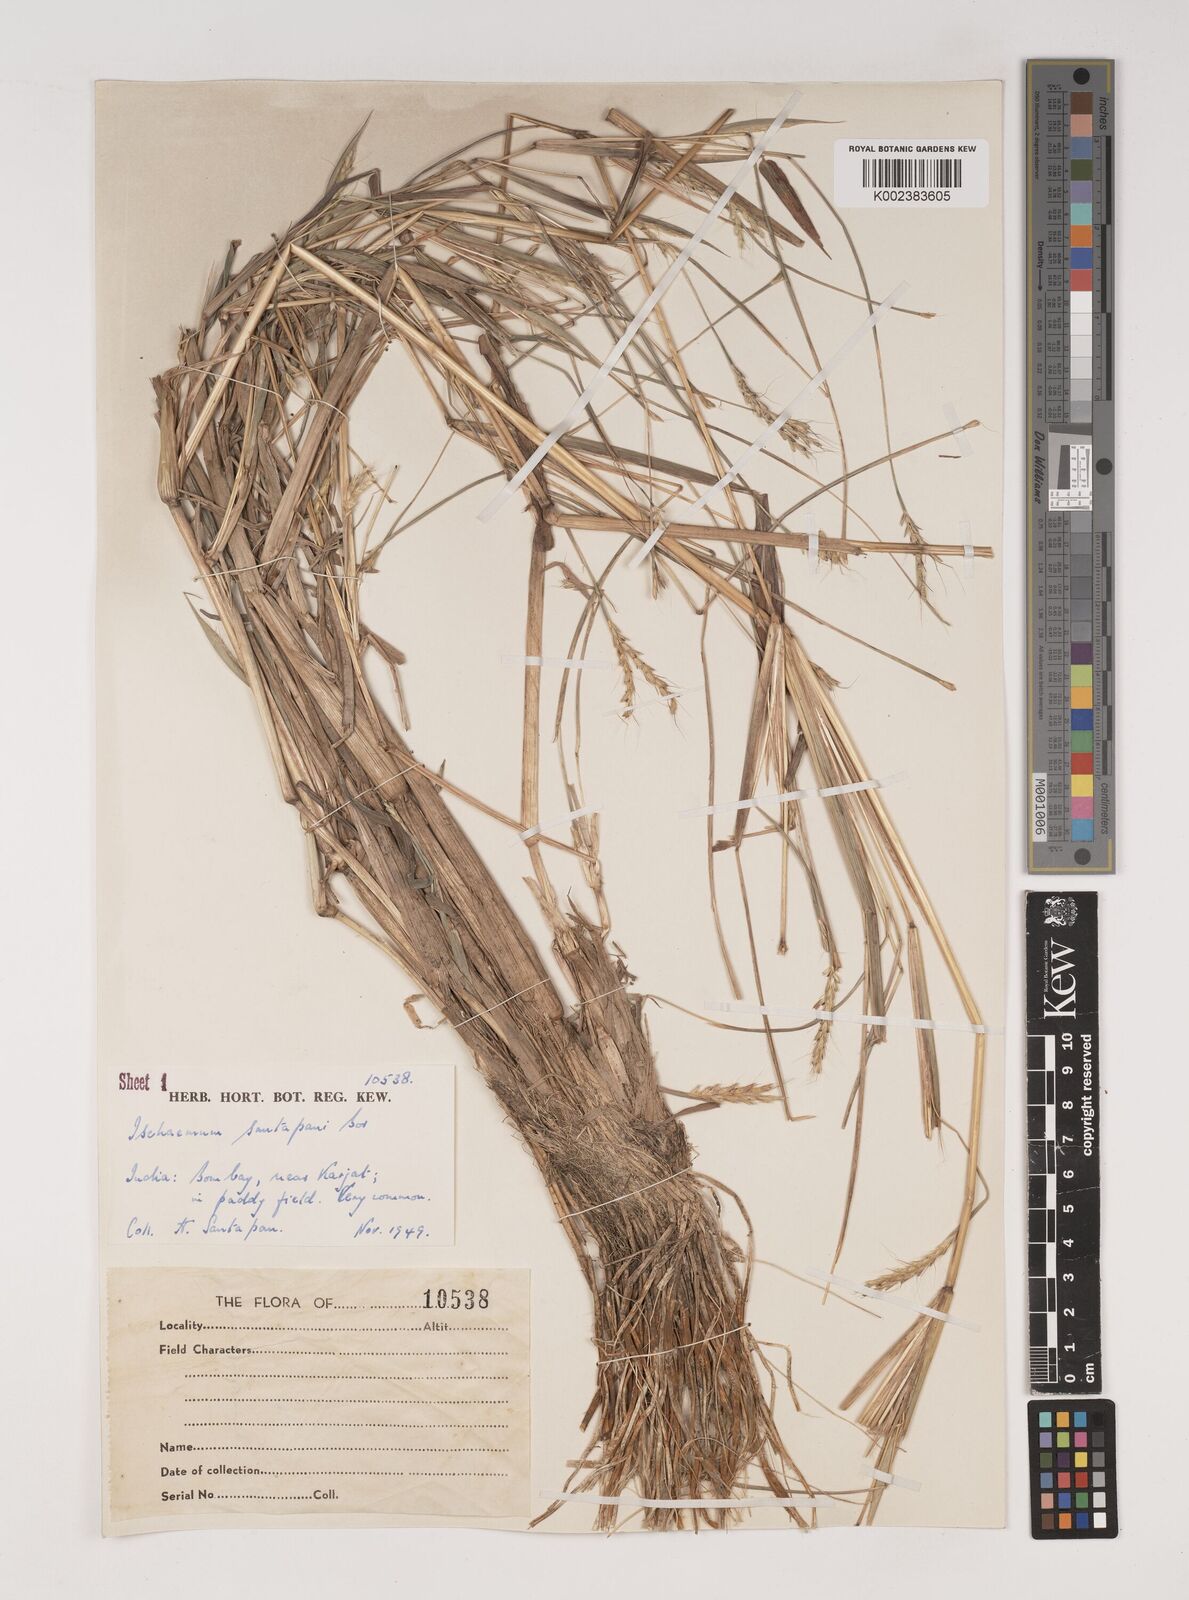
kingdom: Plantae
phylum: Tracheophyta
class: Liliopsida
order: Poales
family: Poaceae
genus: Ischaemum
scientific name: Ischaemum santapaui
